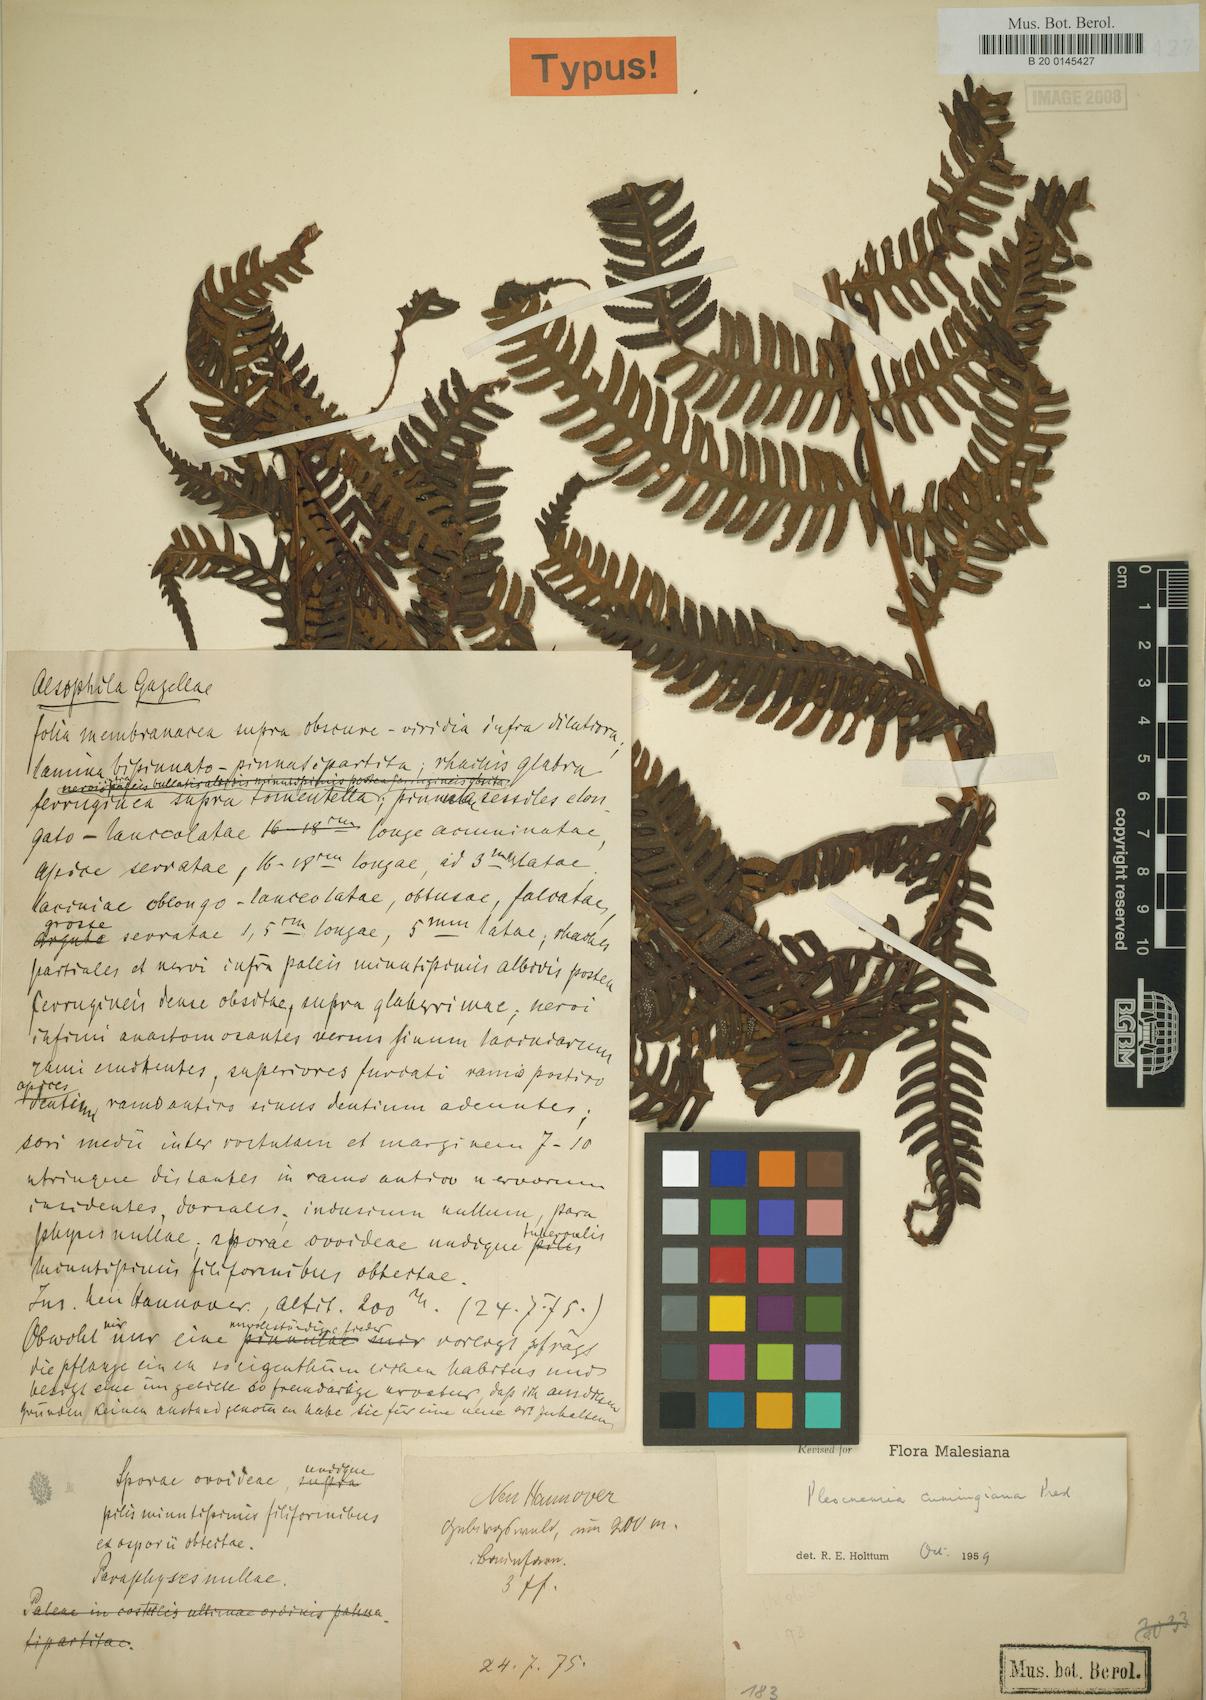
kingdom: Plantae
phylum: Tracheophyta
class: Polypodiopsida
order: Polypodiales
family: Dryopteridaceae
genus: Pleocnemia
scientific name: Pleocnemia cumingiana
